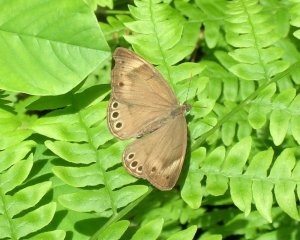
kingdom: Animalia
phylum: Arthropoda
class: Insecta
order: Lepidoptera
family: Nymphalidae
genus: Lethe
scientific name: Lethe eurydice
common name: Appalachian Eyed Brown
